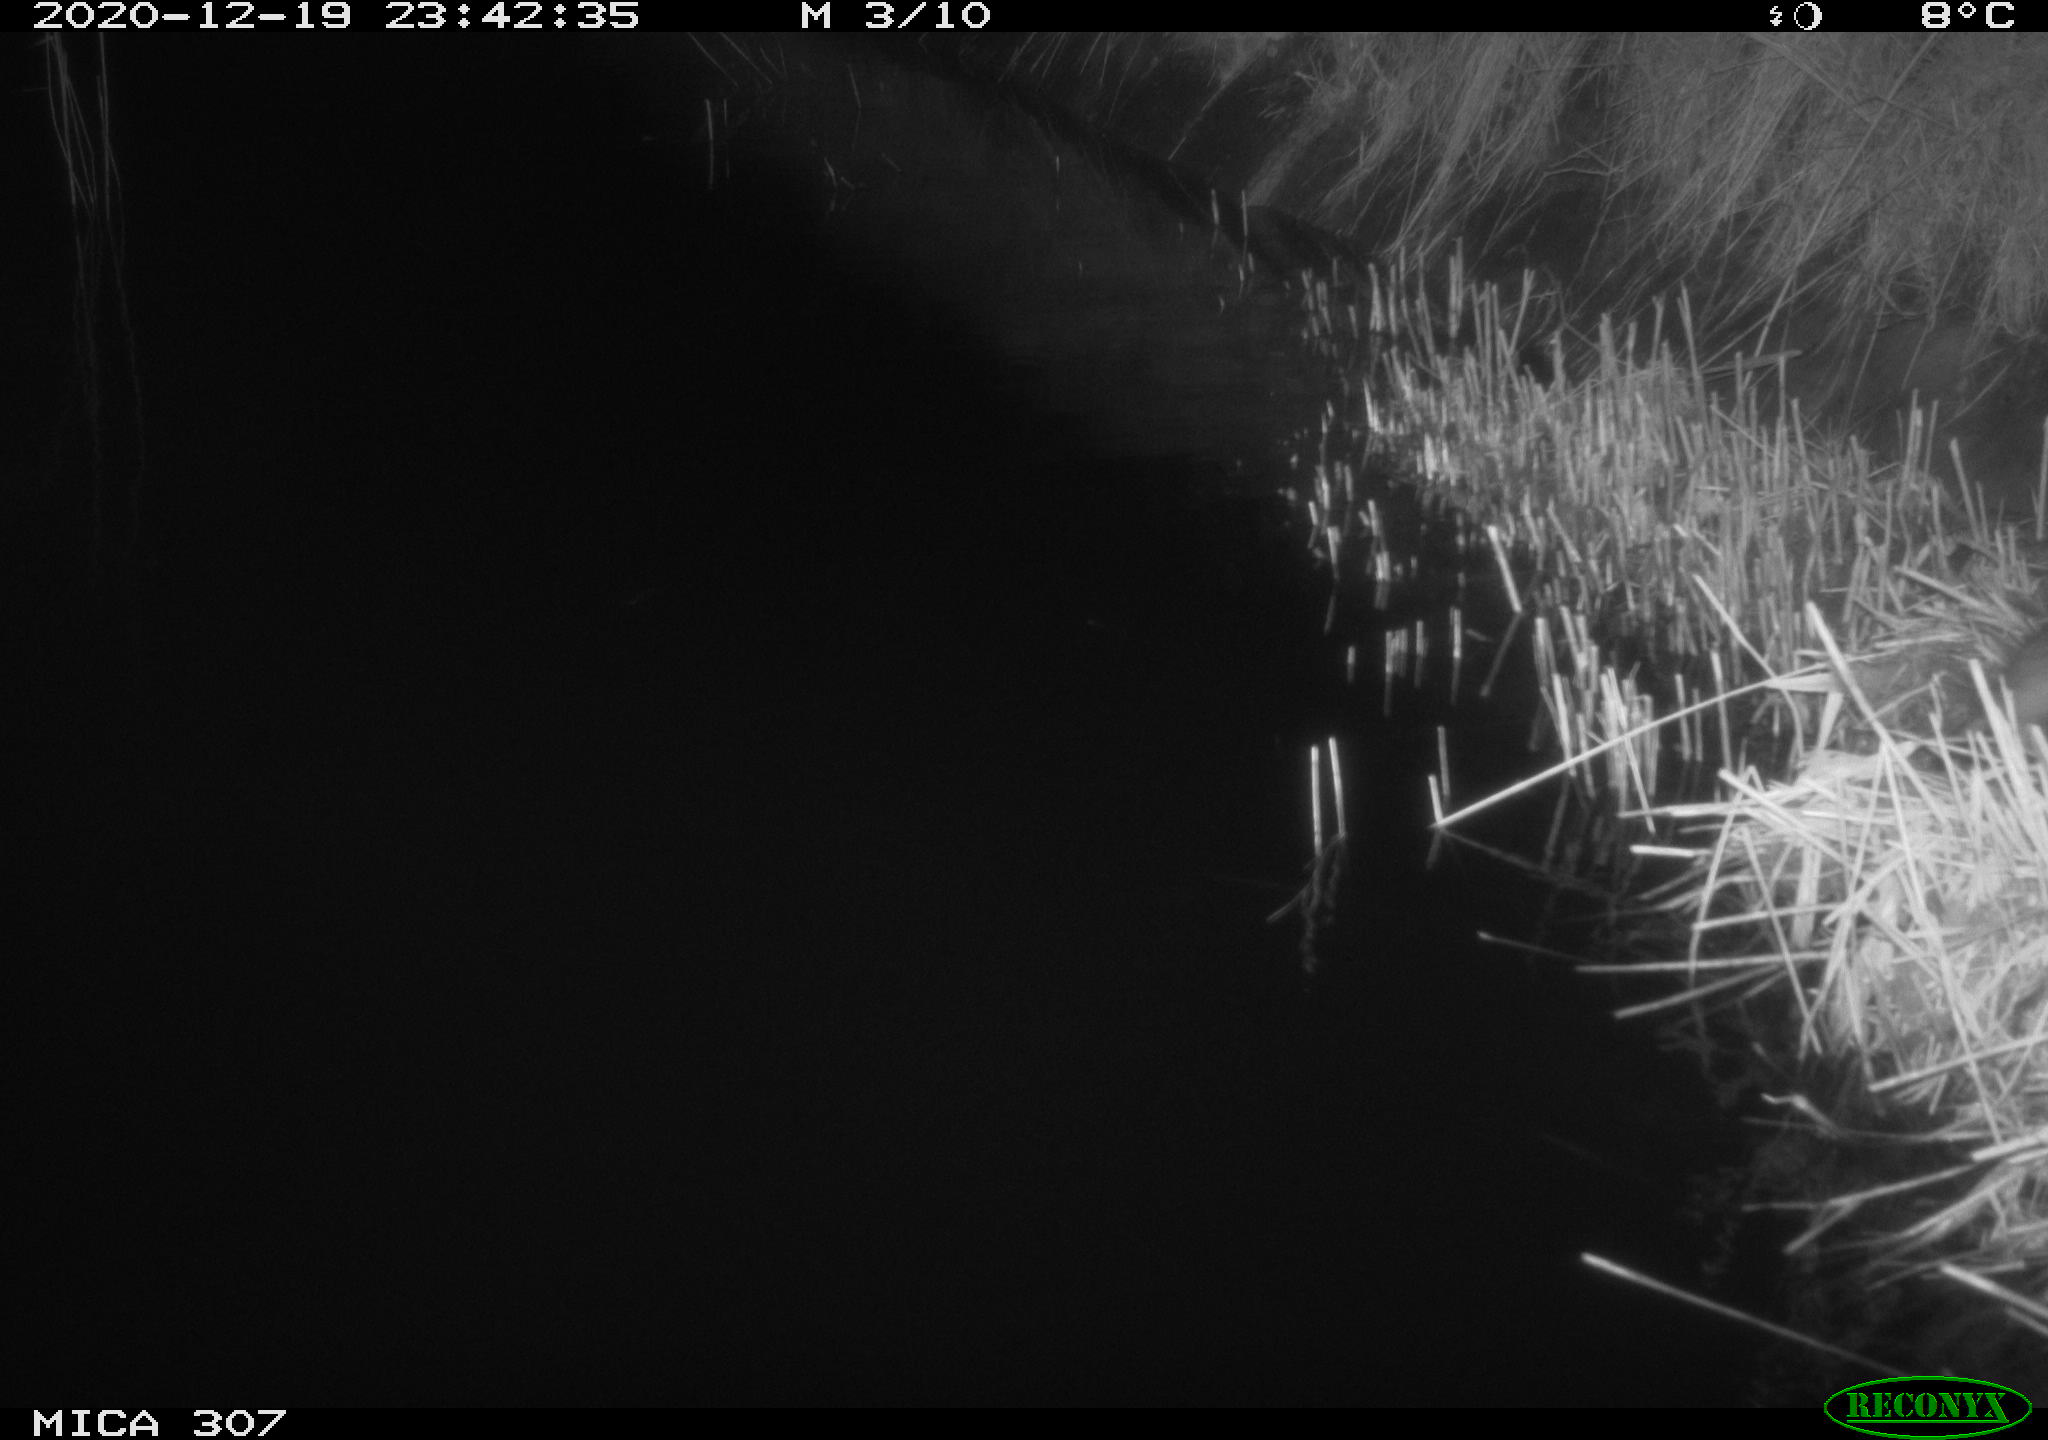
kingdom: Animalia
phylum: Chordata
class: Mammalia
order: Rodentia
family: Muridae
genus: Rattus
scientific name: Rattus norvegicus
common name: Brown rat
